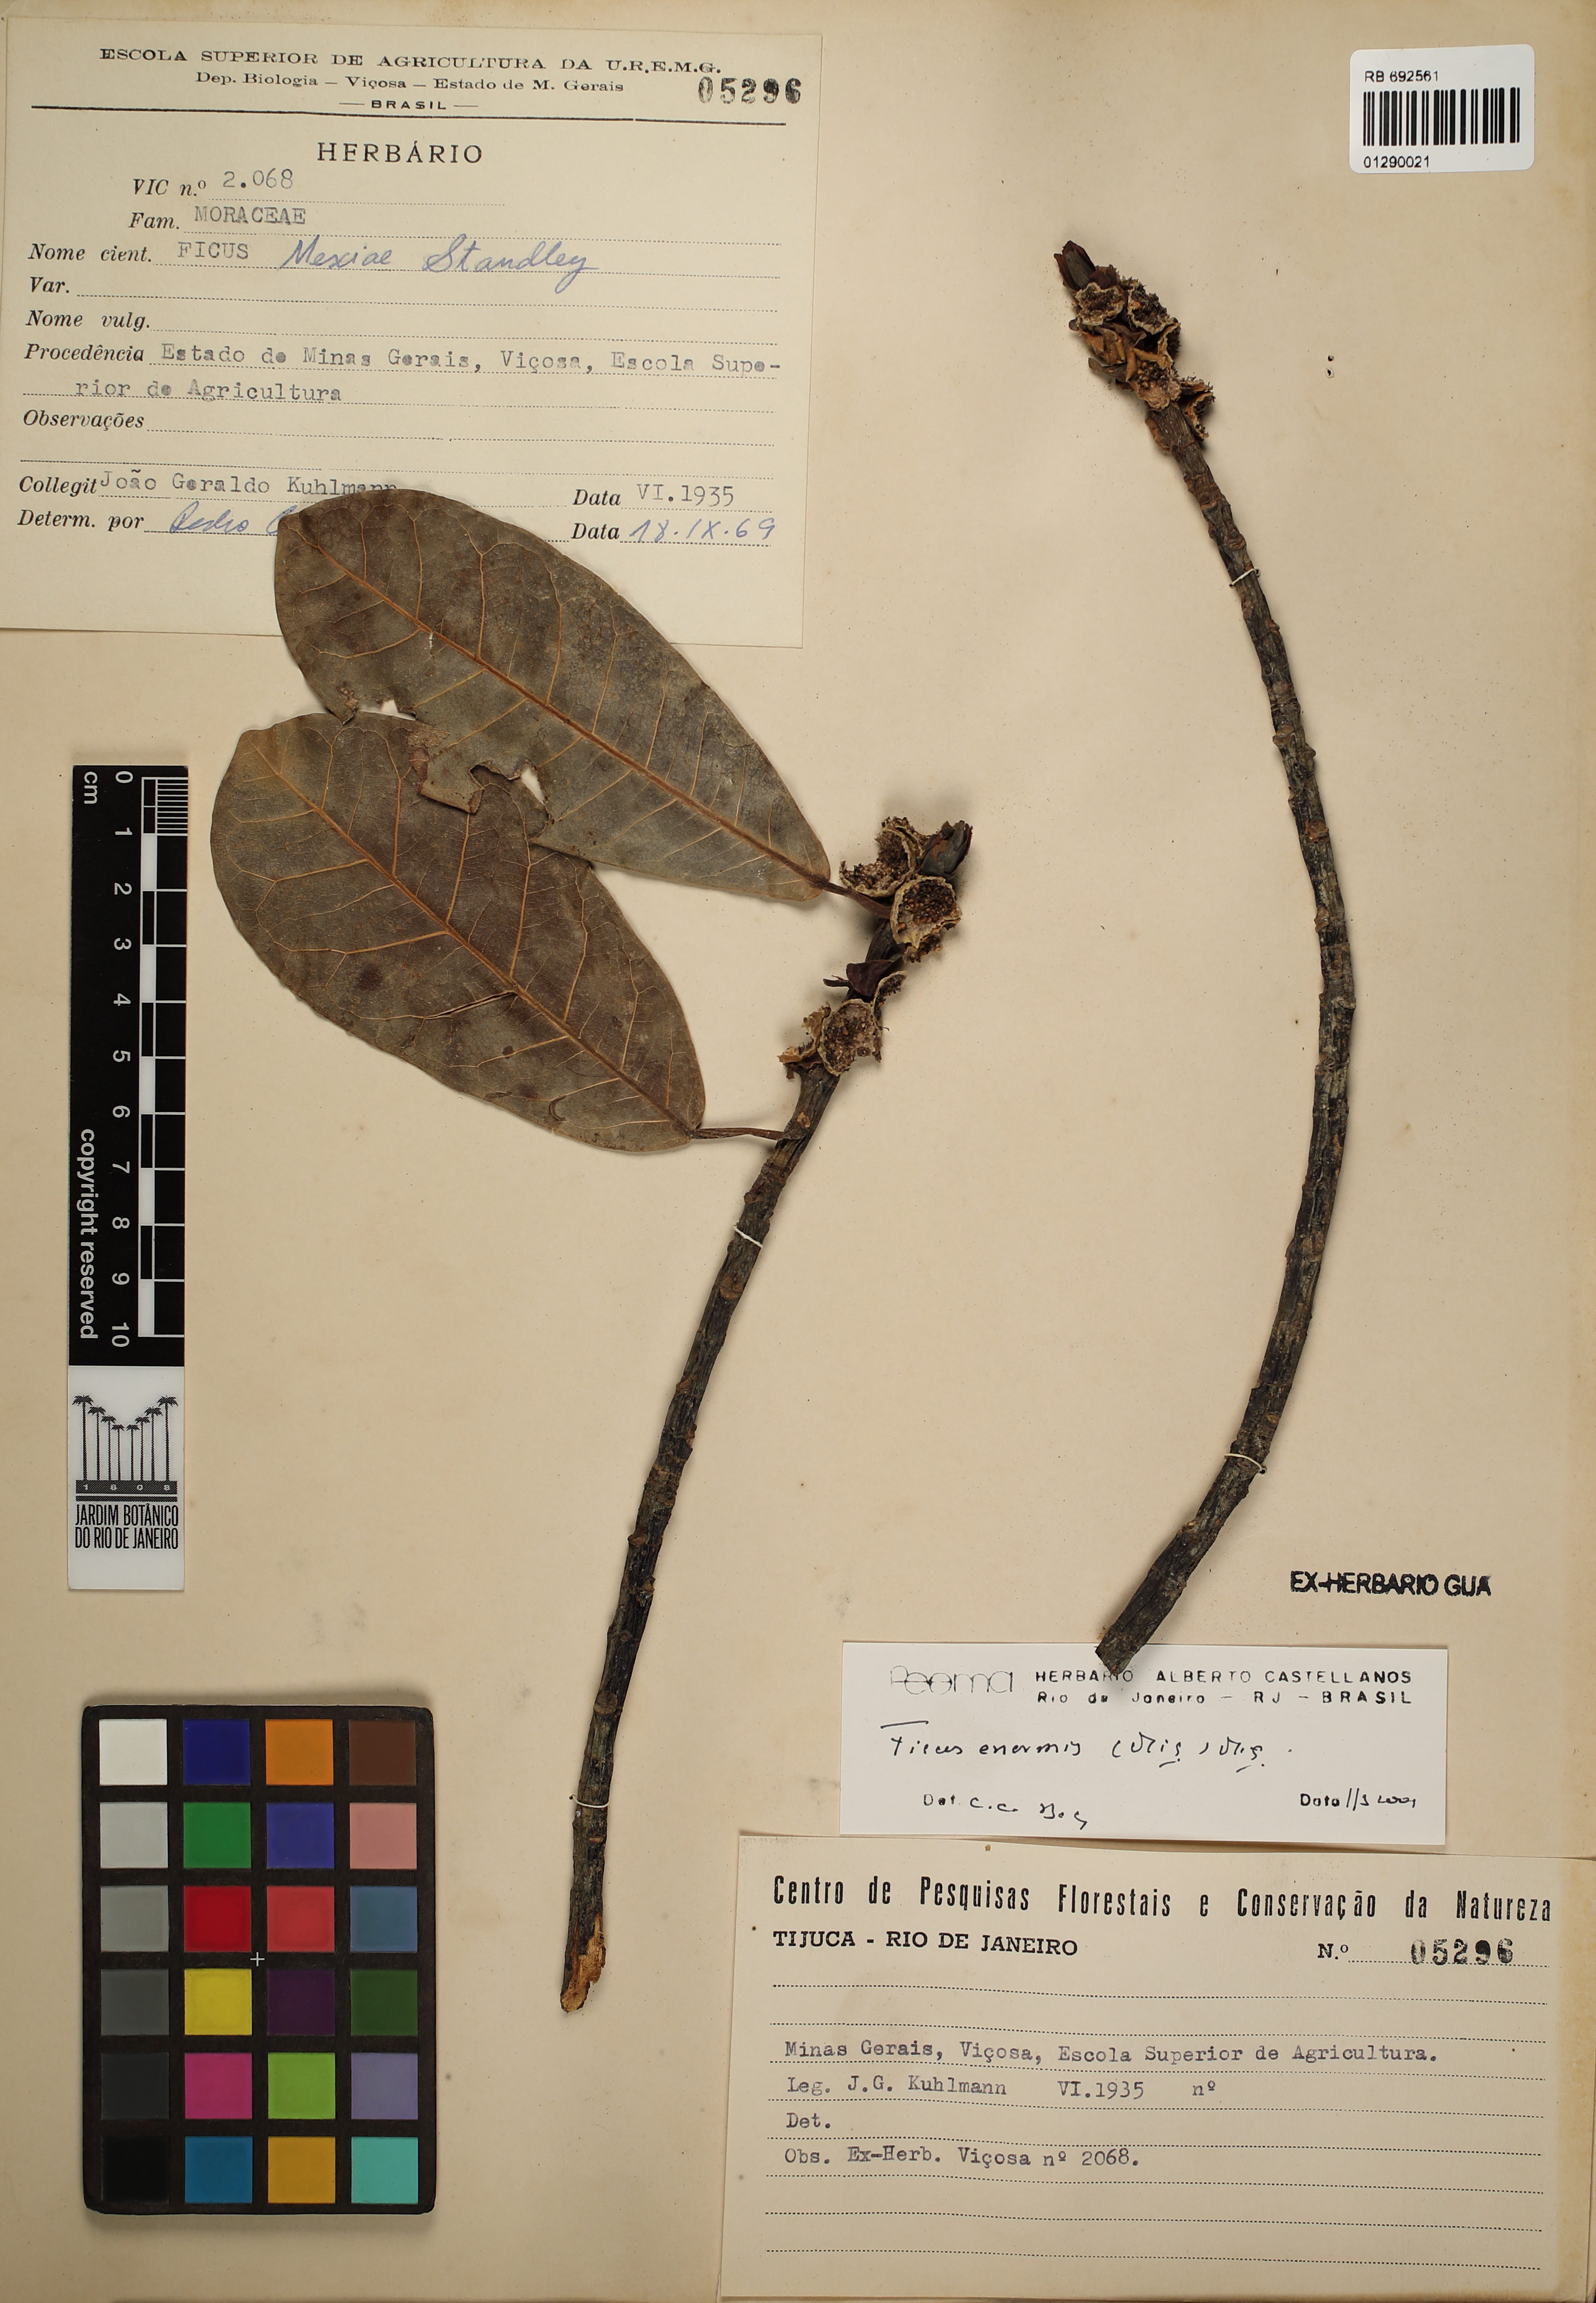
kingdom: Plantae
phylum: Tracheophyta
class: Magnoliopsida
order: Rosales
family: Moraceae
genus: Ficus
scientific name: Ficus enormis
